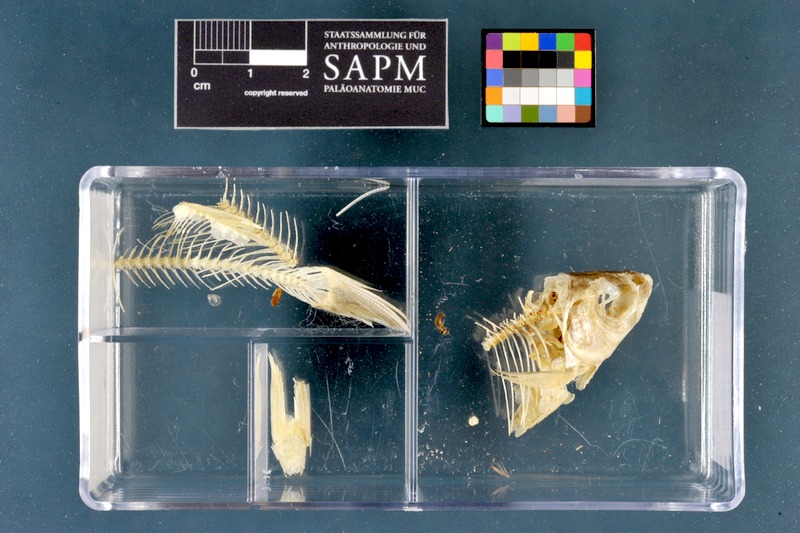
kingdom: Animalia
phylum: Chordata
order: Cypriniformes
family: Cyprinidae
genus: Rutilus
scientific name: Rutilus rutilus
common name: Roach
